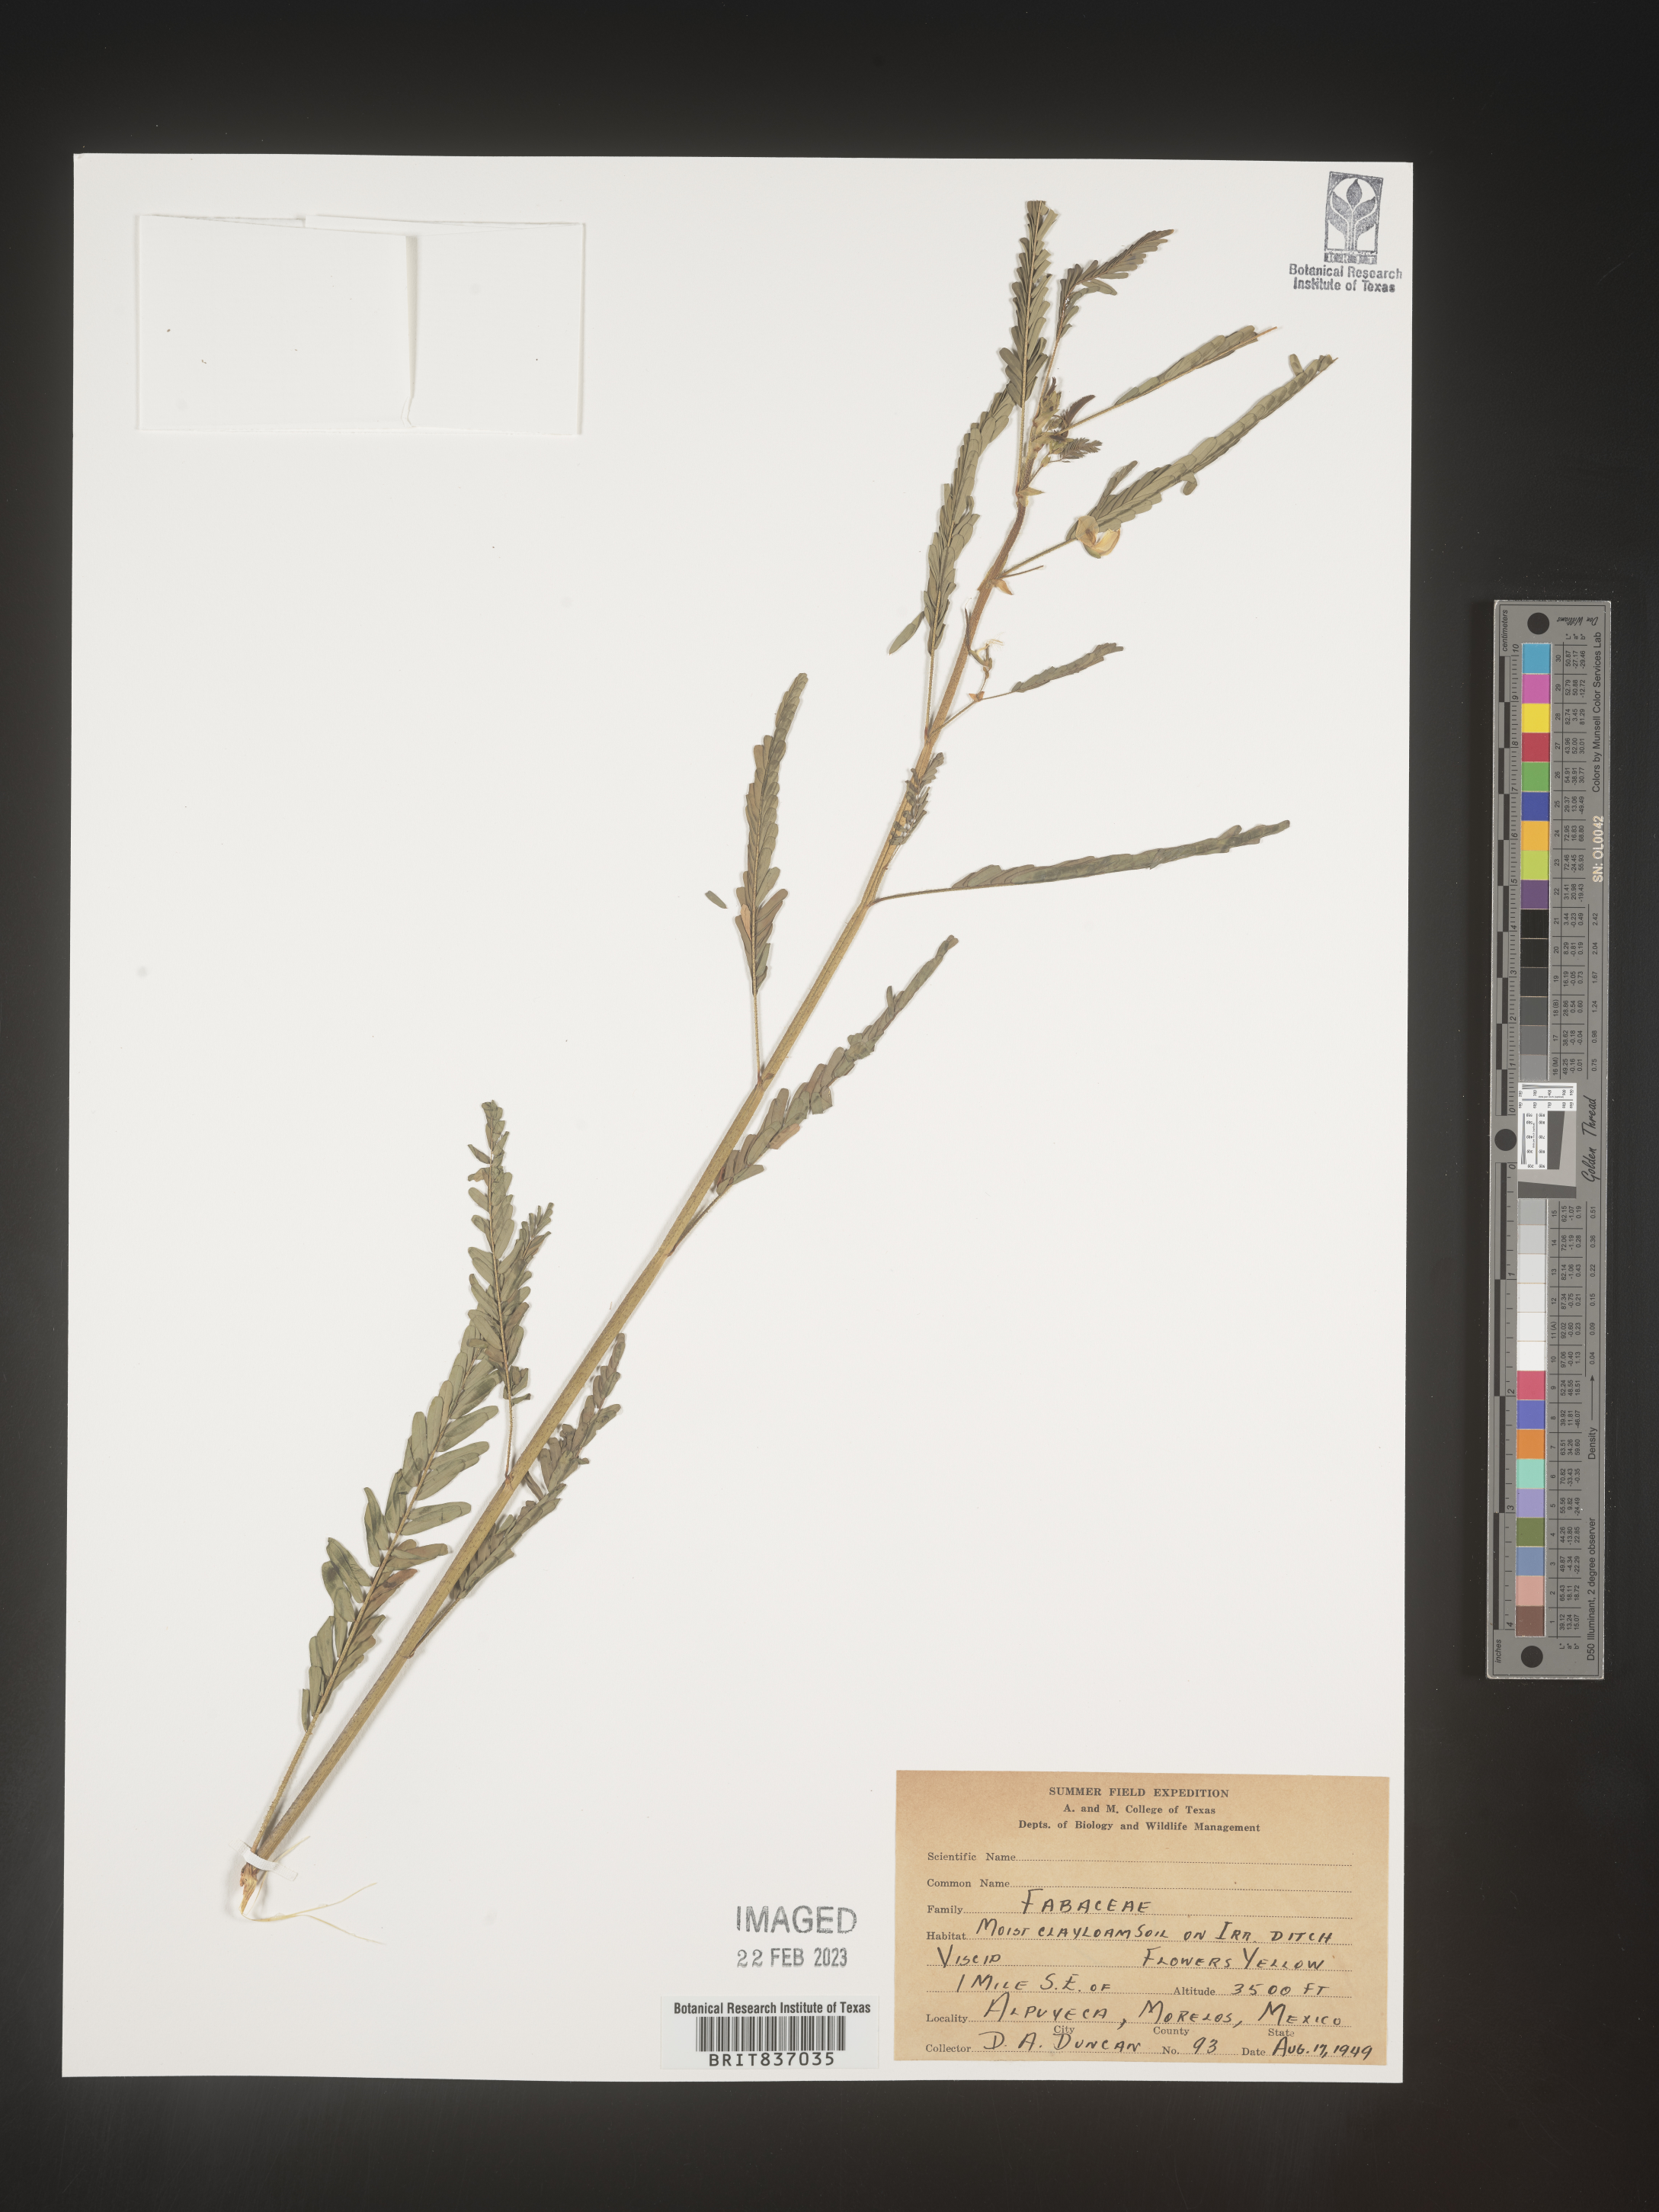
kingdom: Plantae
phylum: Tracheophyta
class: Magnoliopsida
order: Fabales
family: Fabaceae
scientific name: Fabaceae
